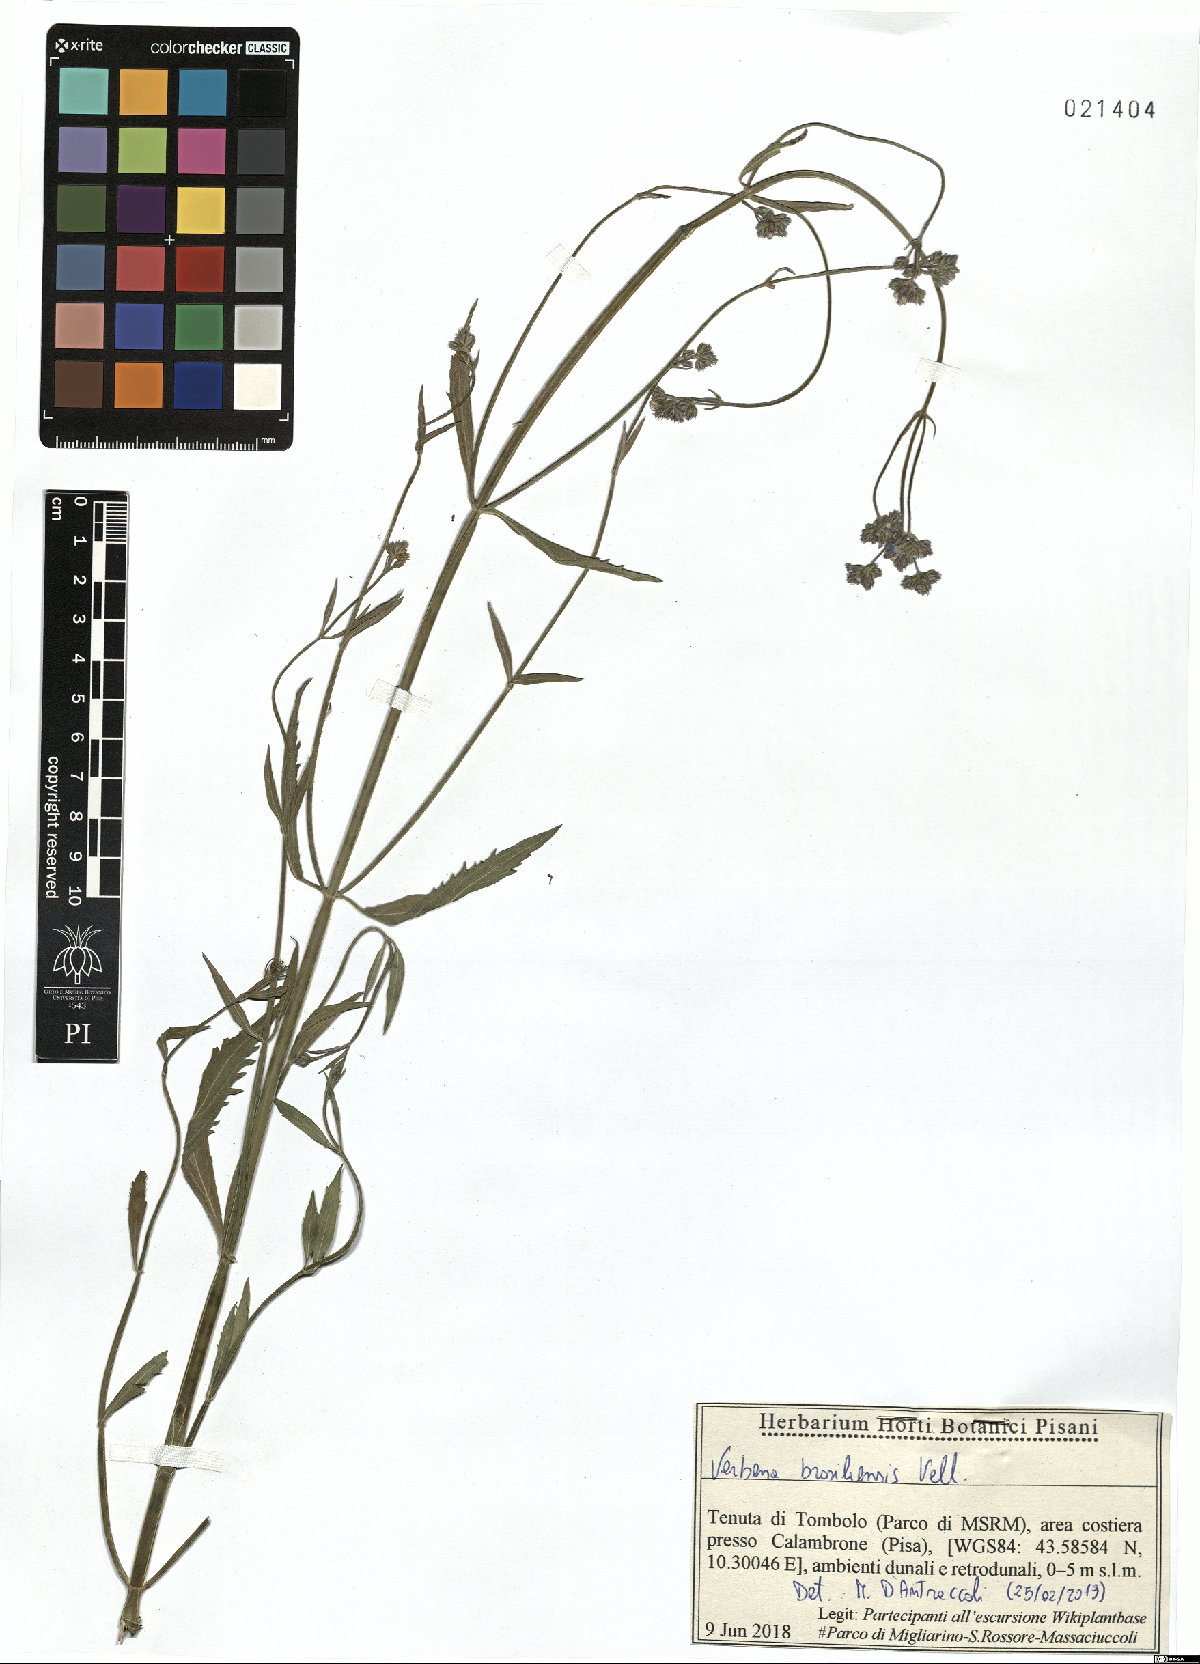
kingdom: Plantae
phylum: Tracheophyta
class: Magnoliopsida
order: Lamiales
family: Verbenaceae
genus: Verbena
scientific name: Verbena brasiliensis
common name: Brazilian vervain
